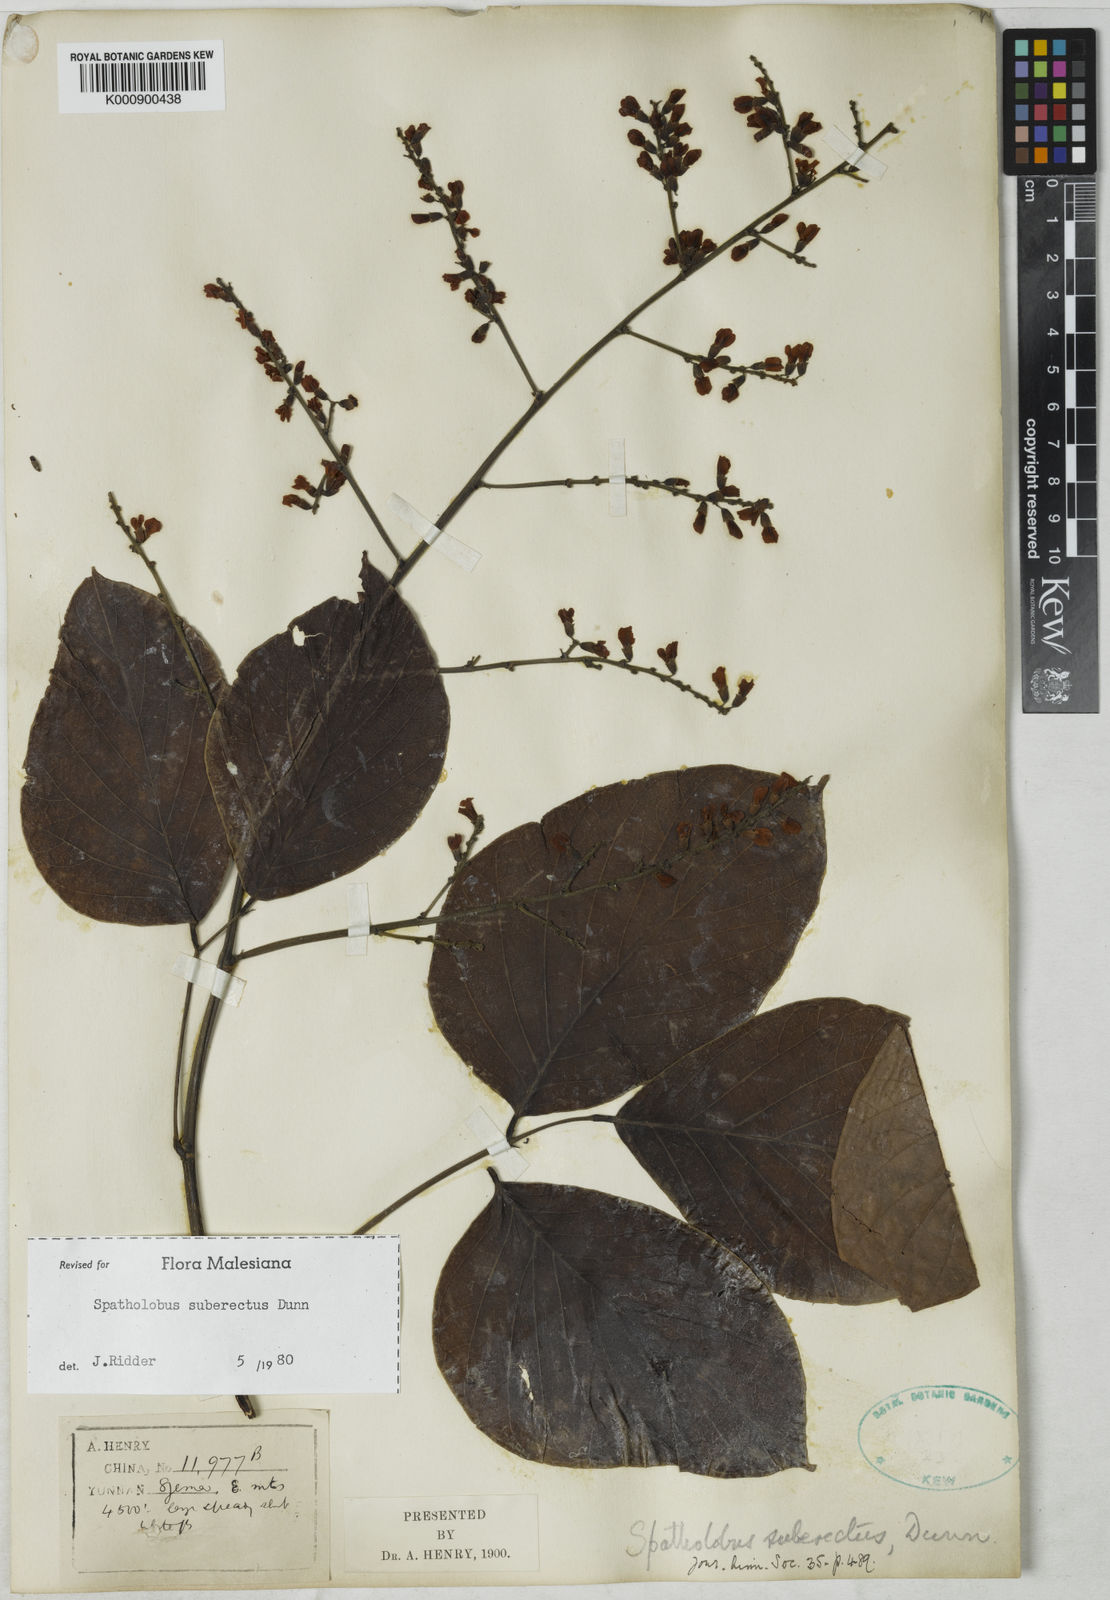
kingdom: Plantae
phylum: Tracheophyta
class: Magnoliopsida
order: Fabales
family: Fabaceae
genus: Spatholobus
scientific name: Spatholobus suberectus
